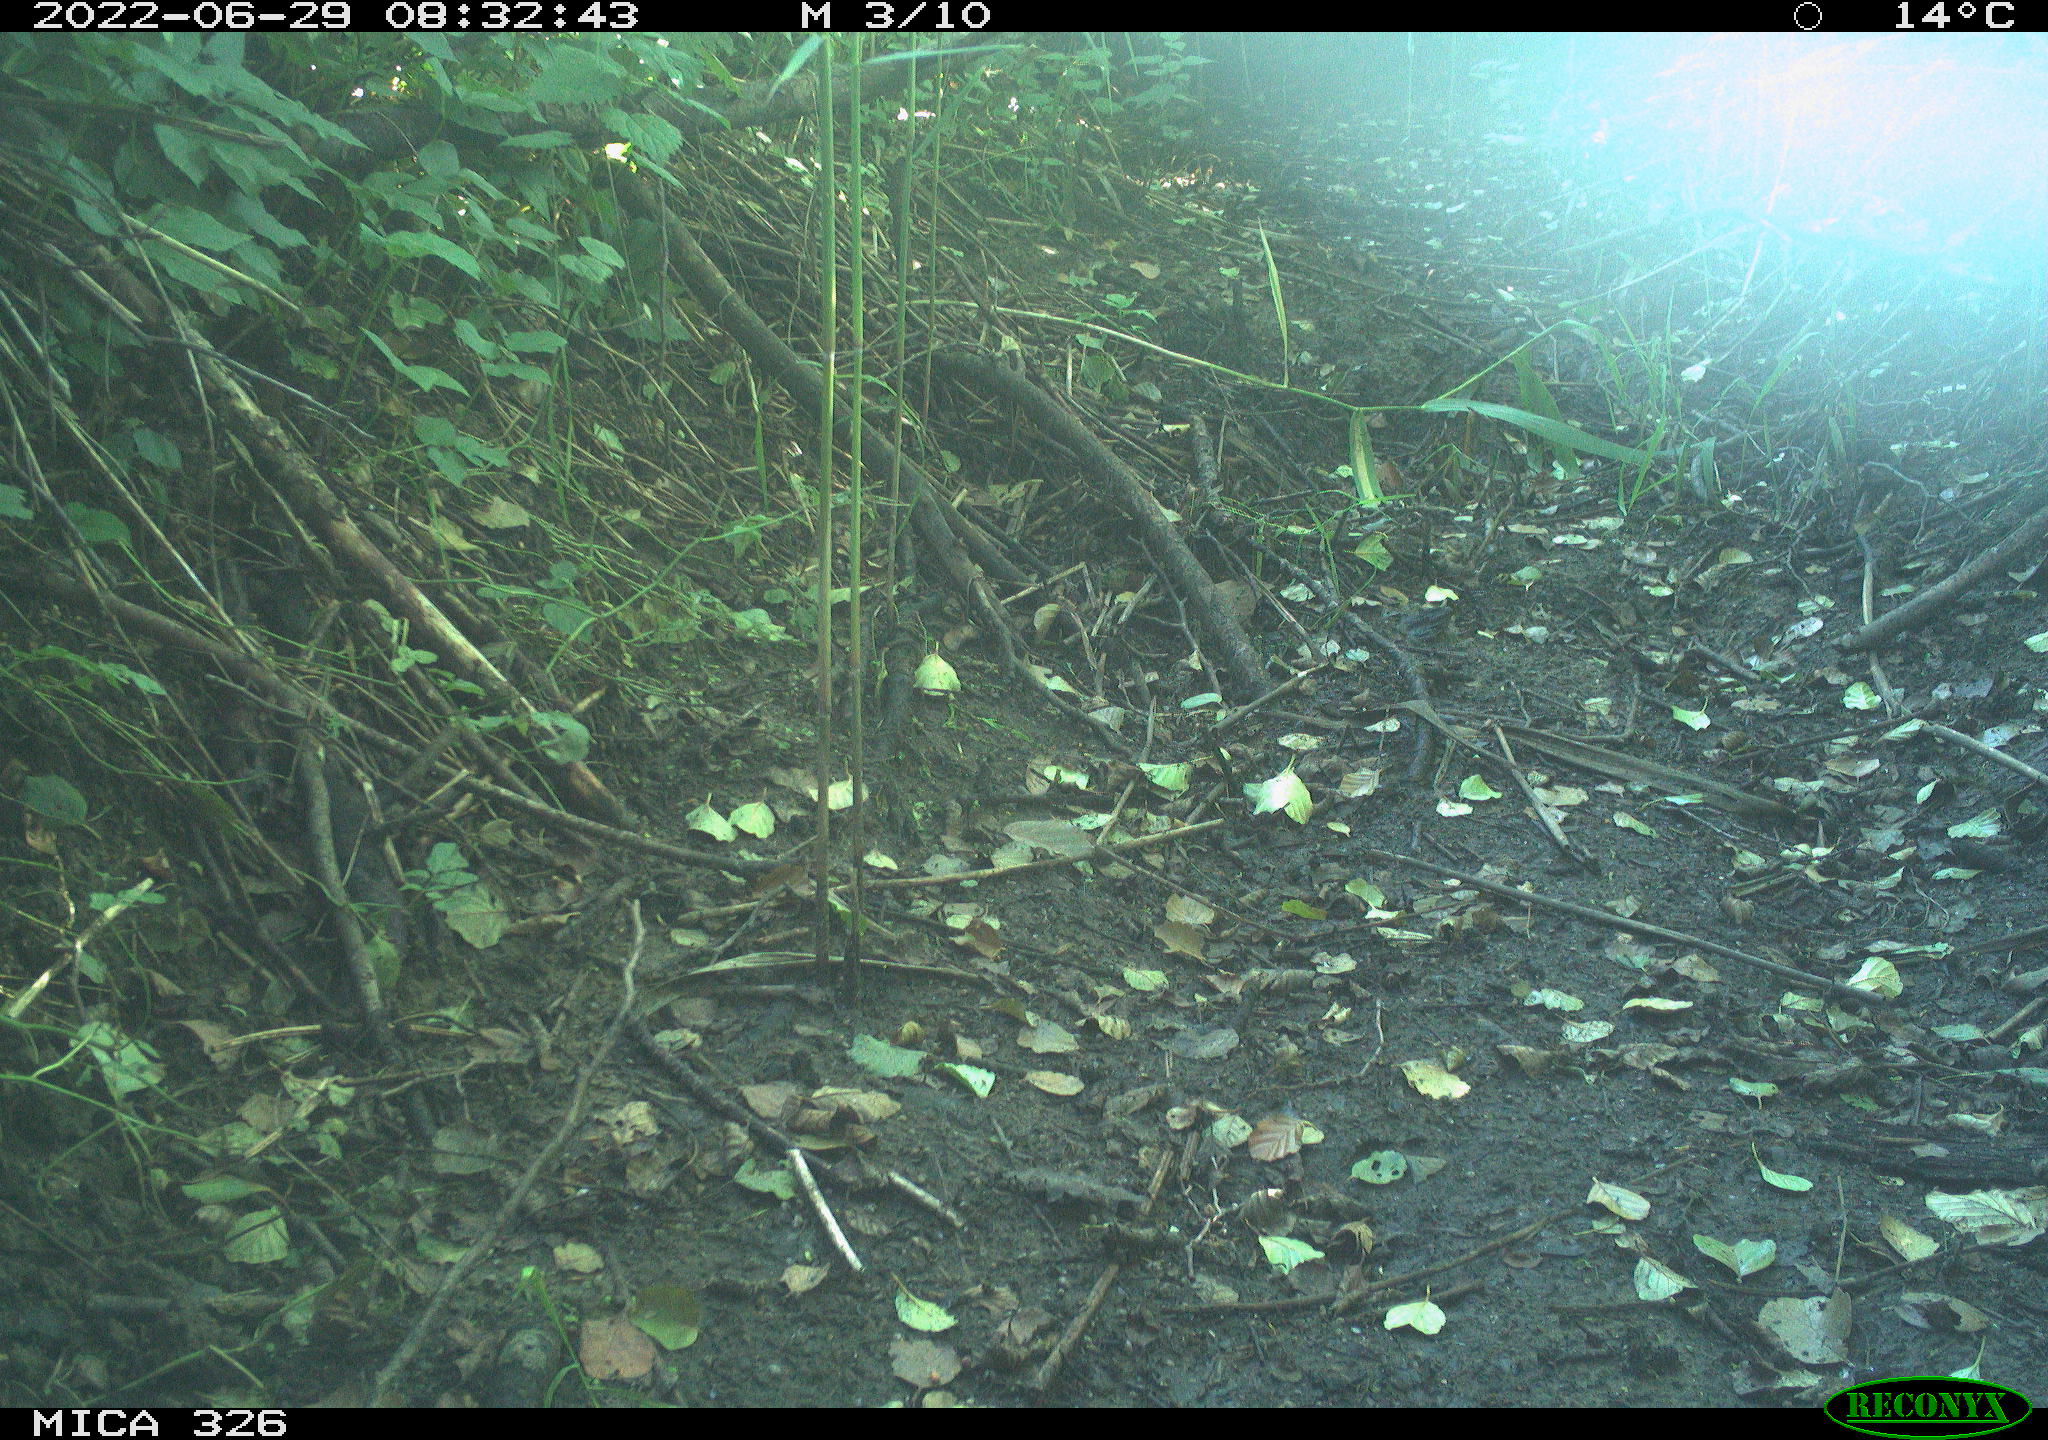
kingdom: Animalia
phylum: Chordata
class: Mammalia
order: Lagomorpha
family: Leporidae
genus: Lepus
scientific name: Lepus europaeus
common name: European hare
